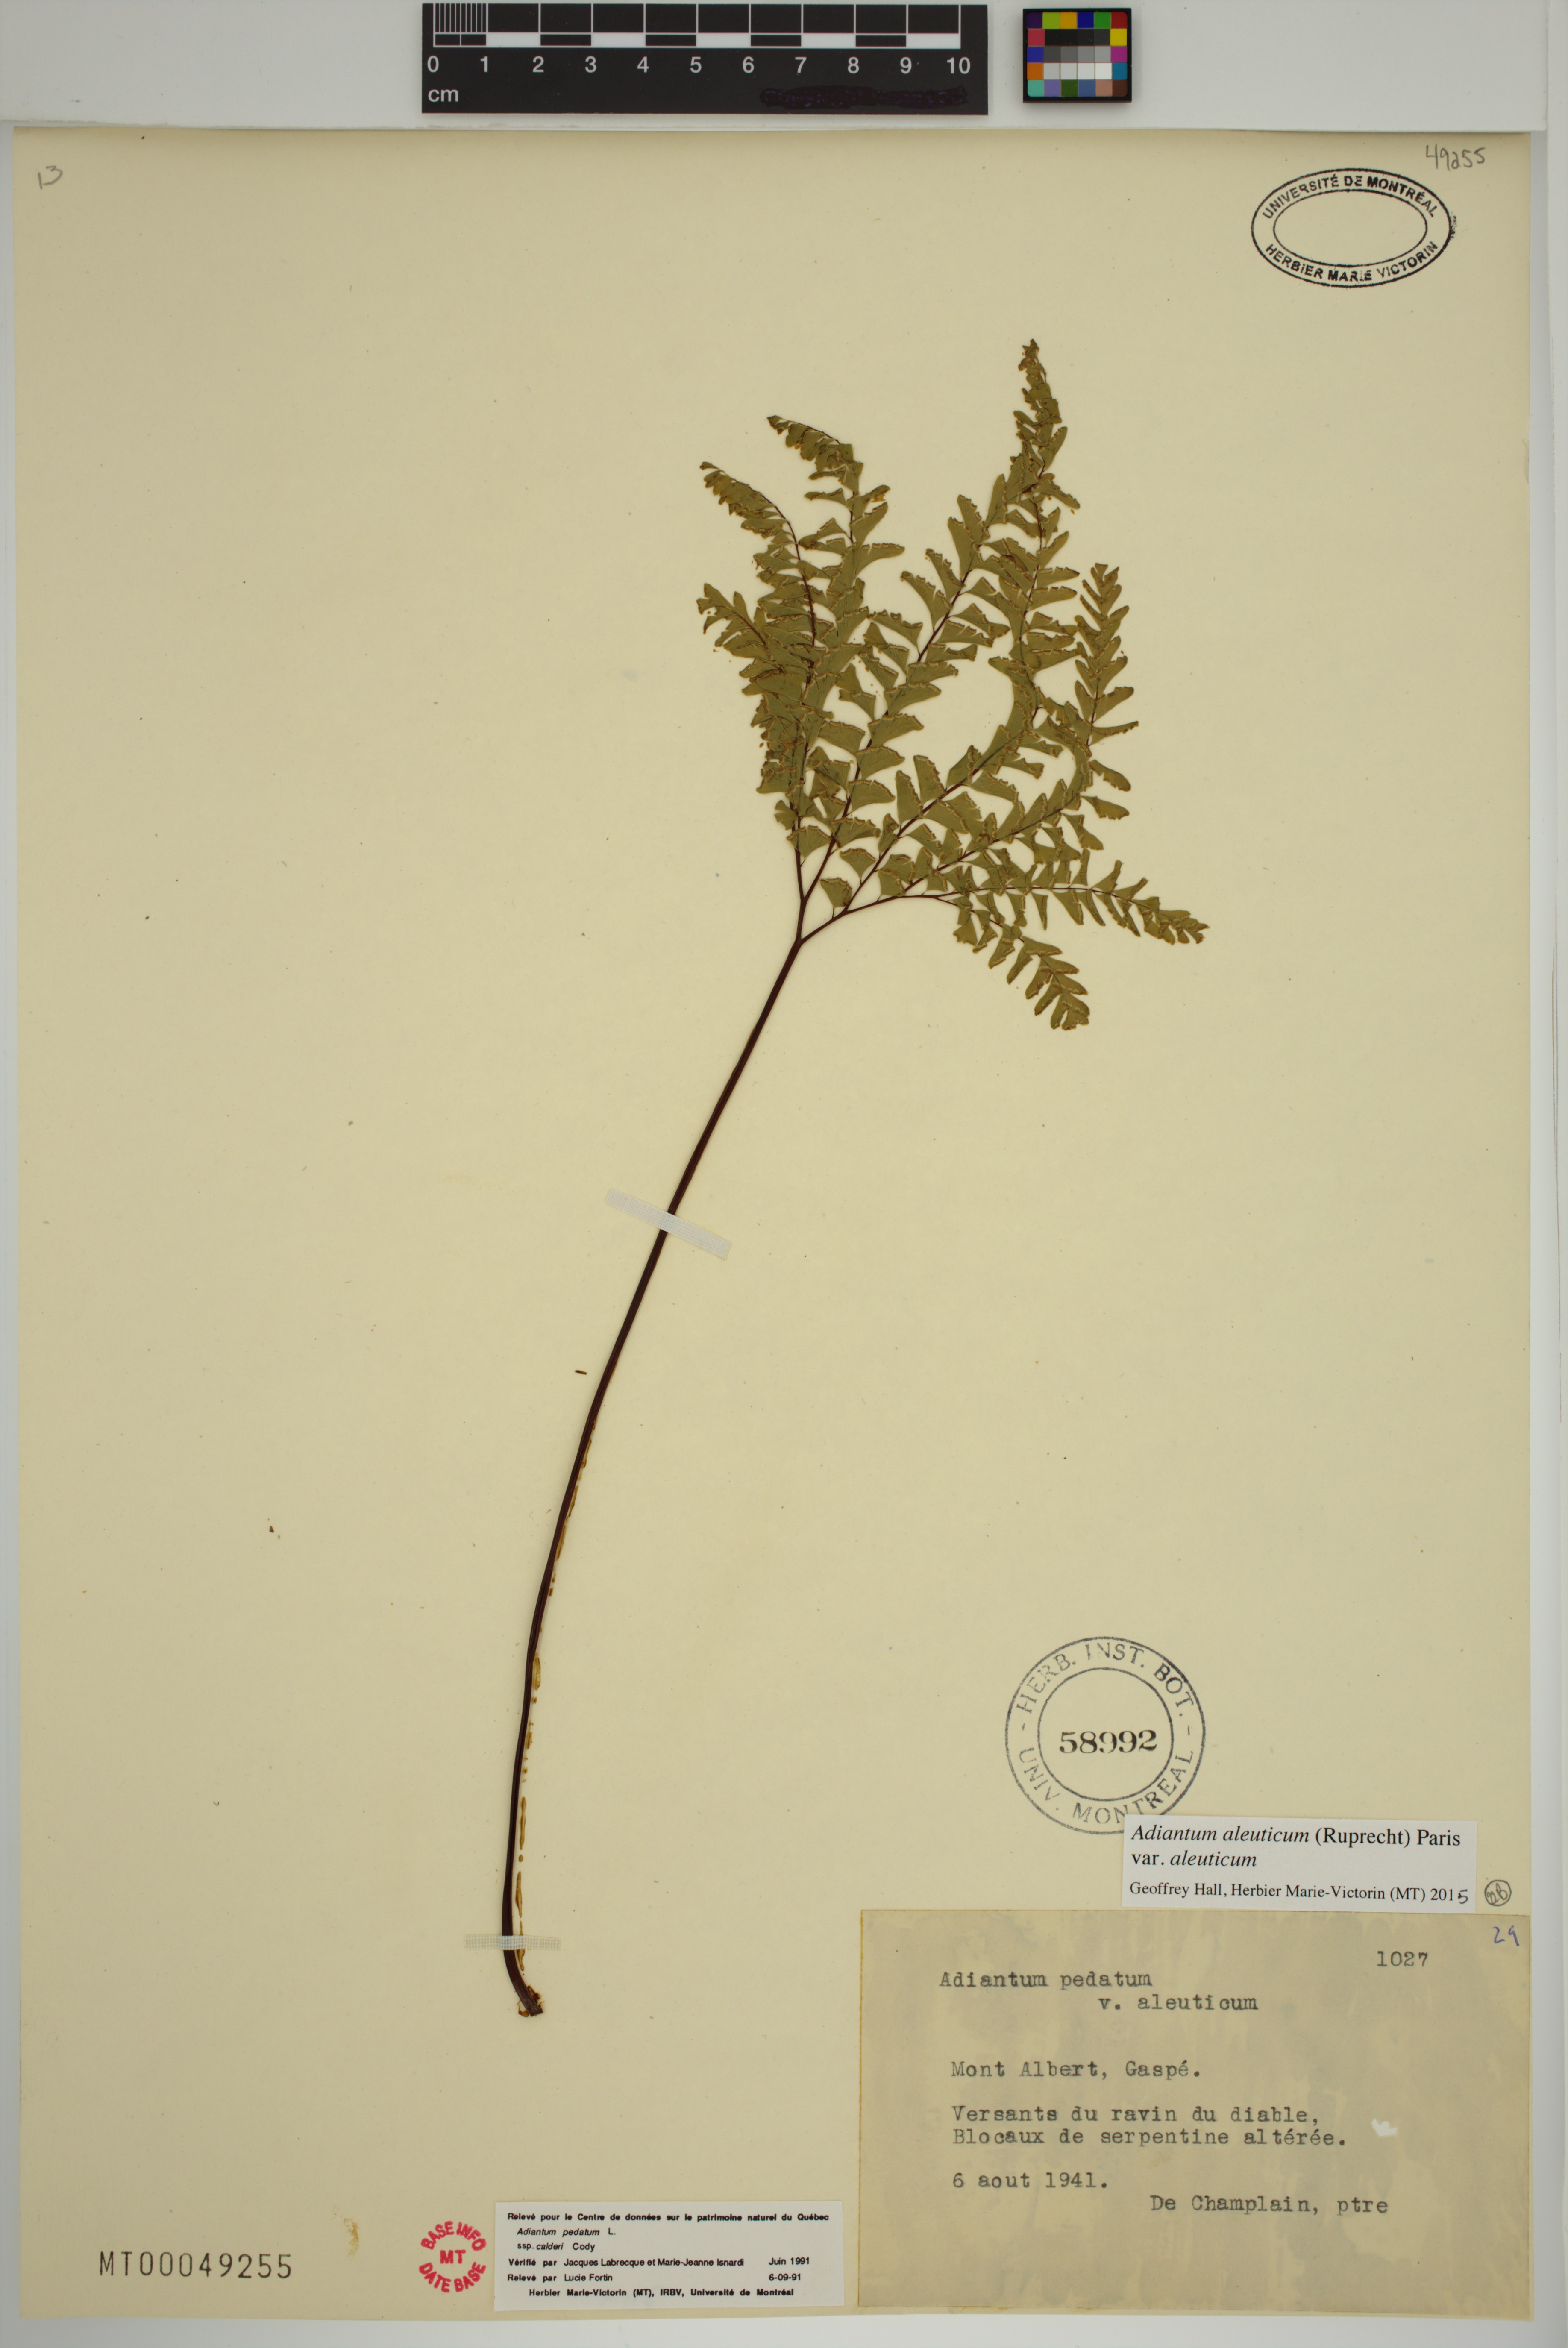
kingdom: Plantae
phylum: Tracheophyta
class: Polypodiopsida
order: Polypodiales
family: Pteridaceae
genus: Adiantum
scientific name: Adiantum aleuticum
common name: Aleutian maidenhair fern
